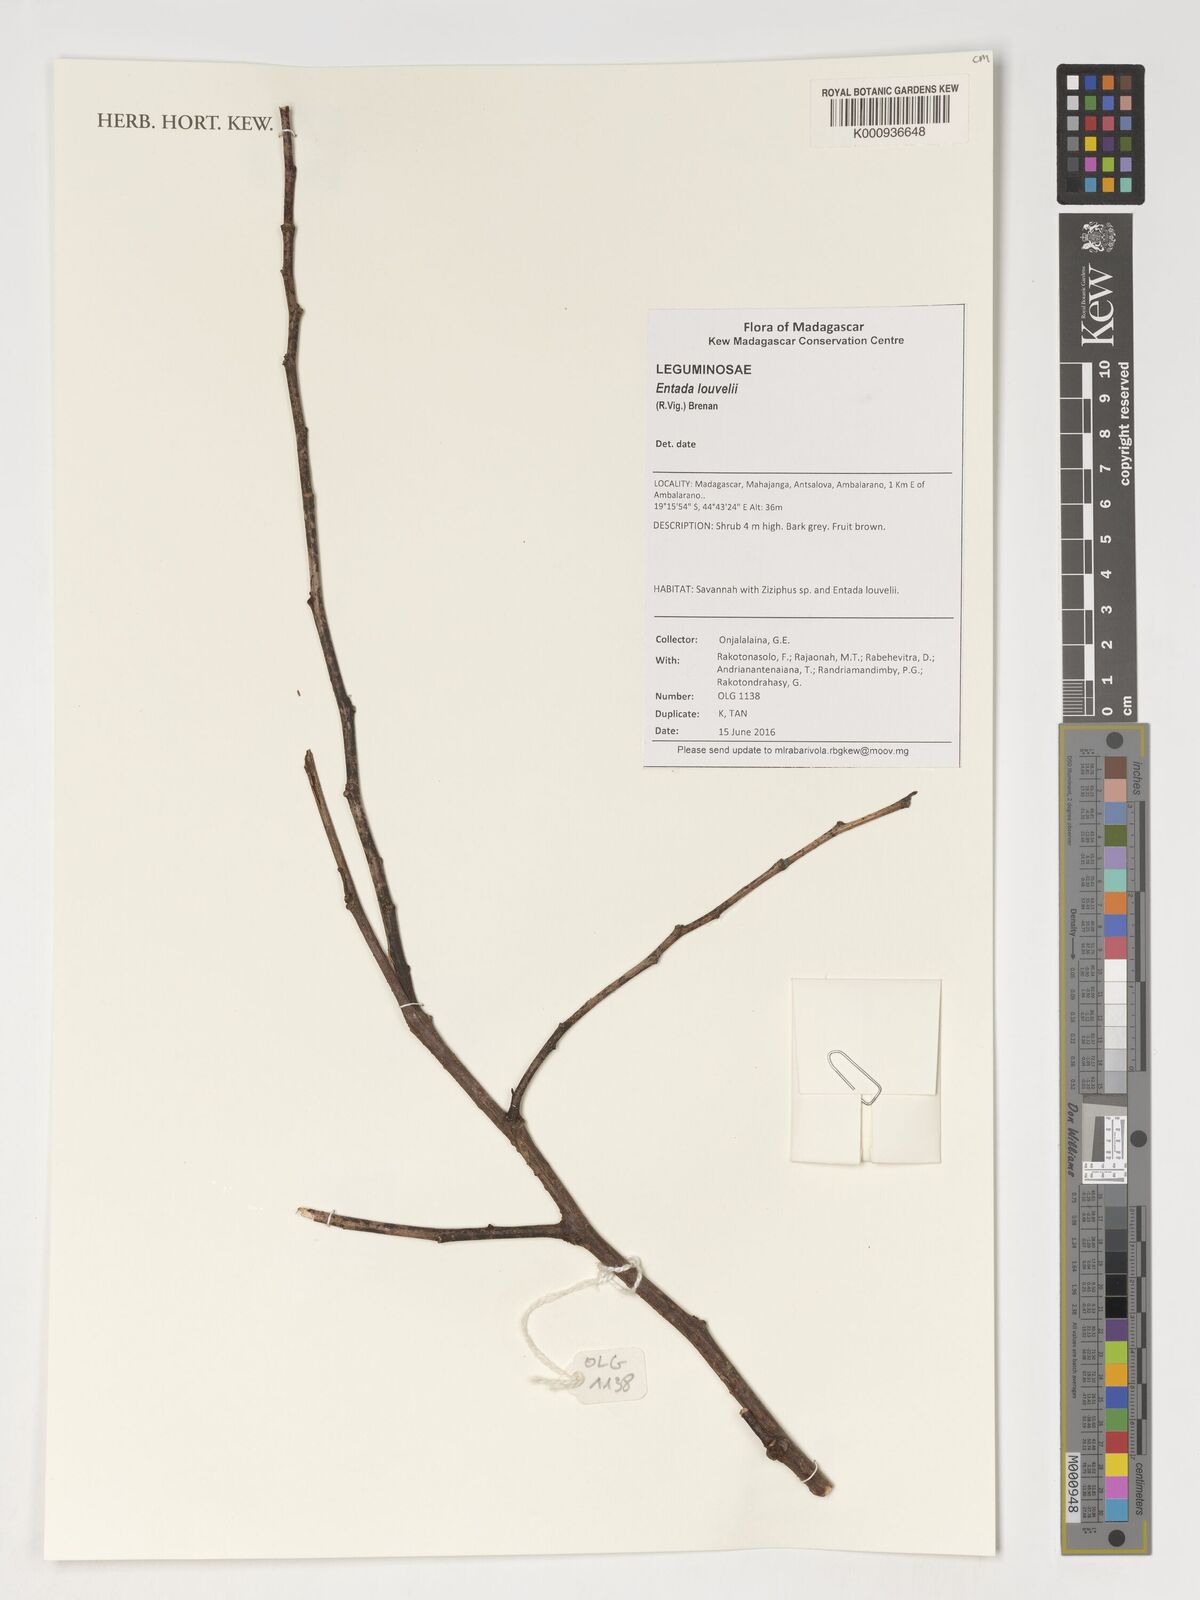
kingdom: Plantae
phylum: Tracheophyta
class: Magnoliopsida
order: Fabales
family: Fabaceae
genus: Entada
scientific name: Entada louvelii
